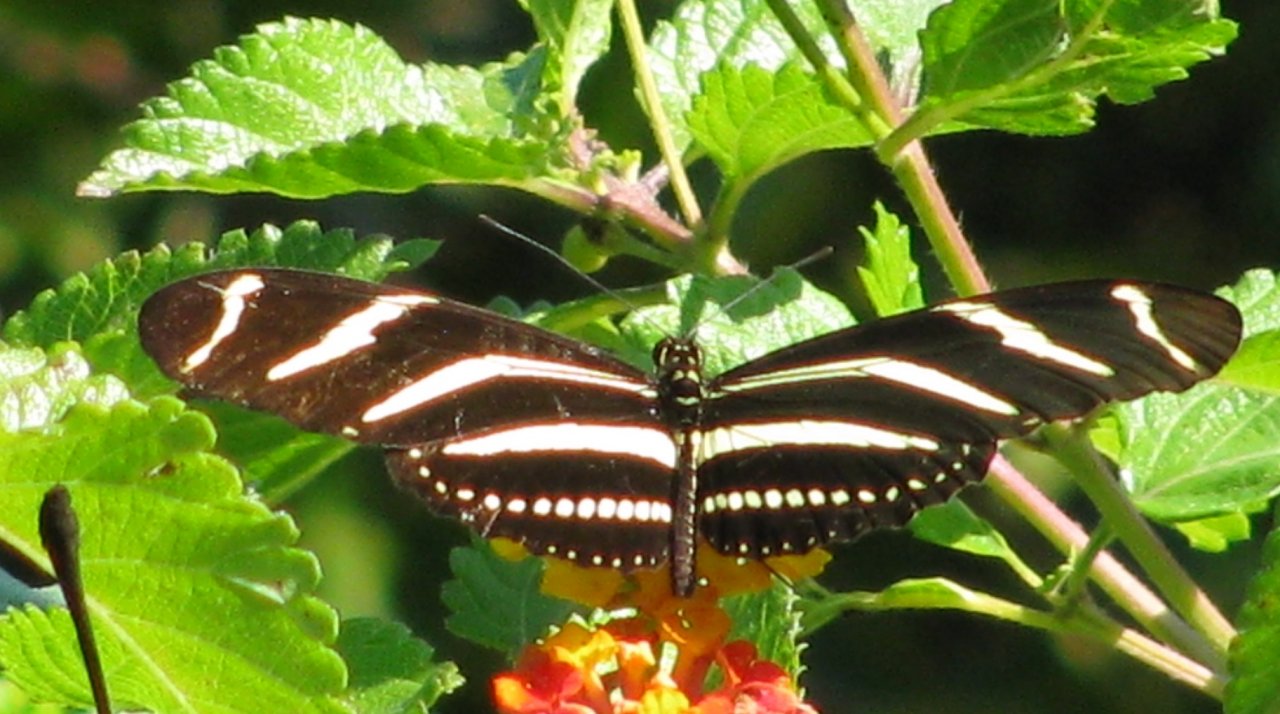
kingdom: Animalia
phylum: Arthropoda
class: Insecta
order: Lepidoptera
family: Nymphalidae
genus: Heliconius
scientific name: Heliconius charithonia
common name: Zebra Longwing
